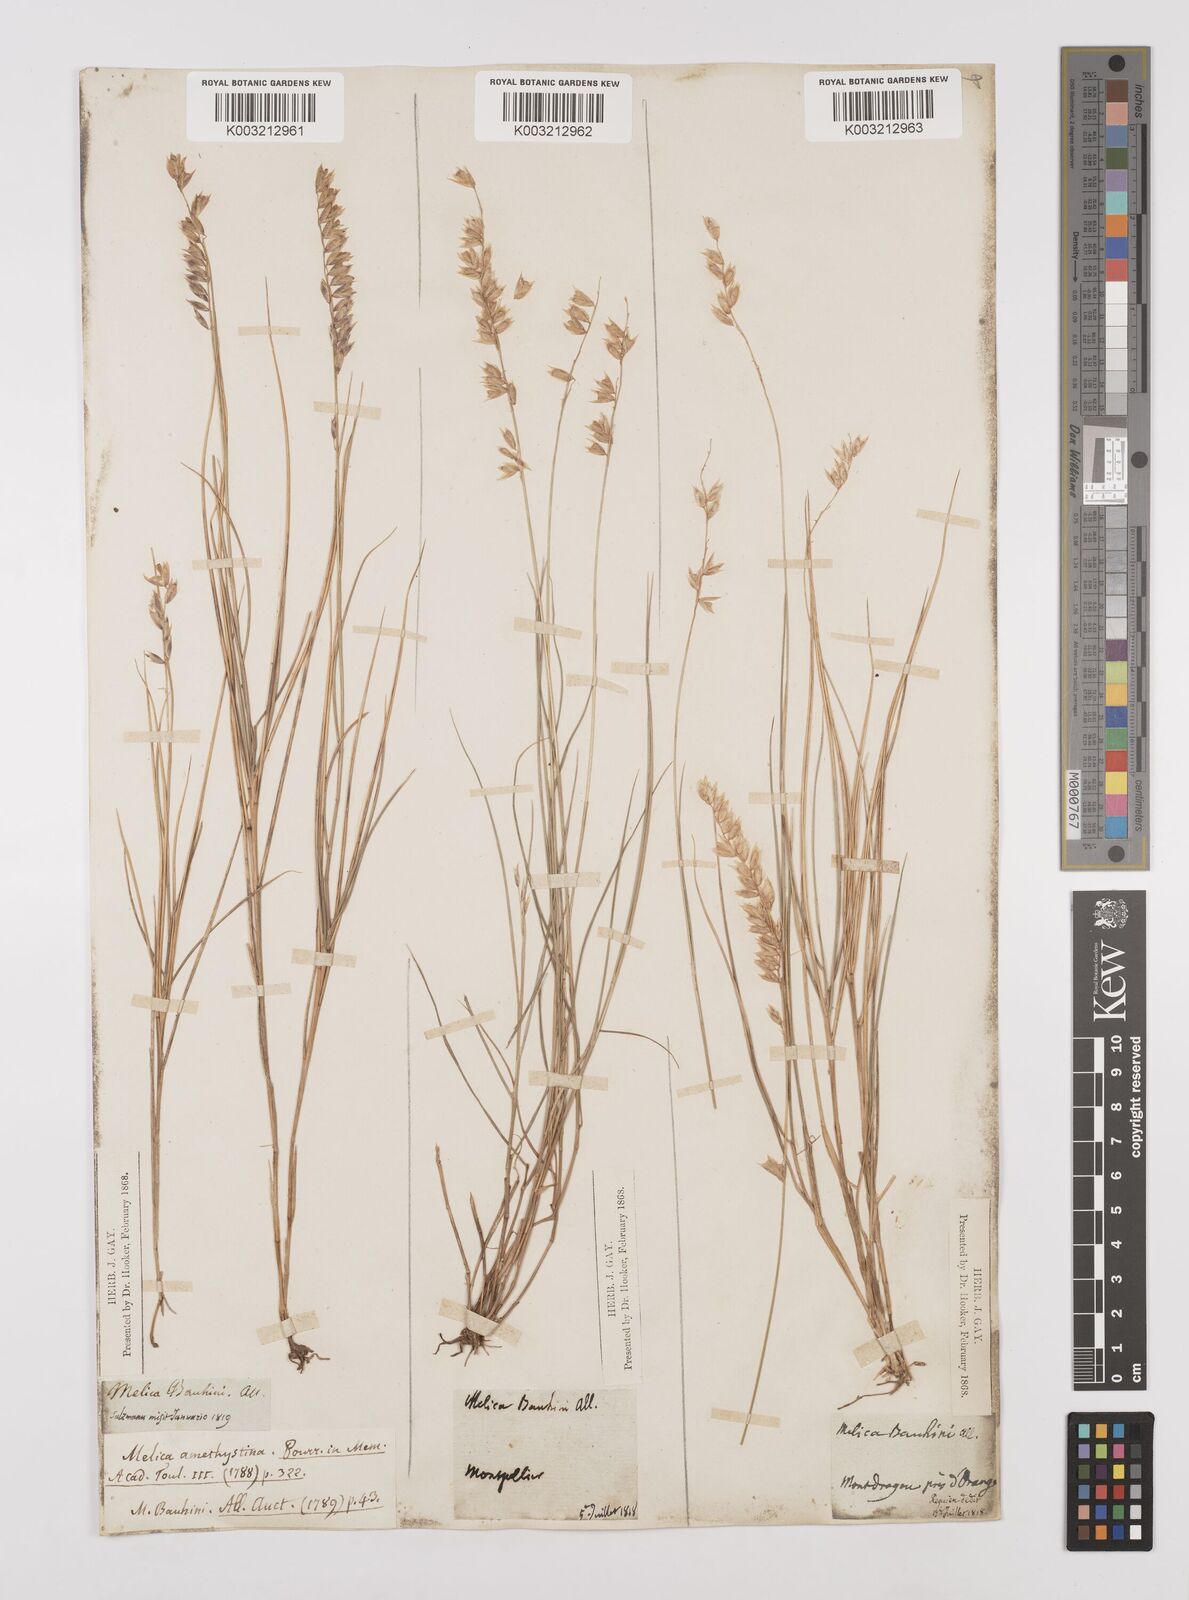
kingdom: Plantae
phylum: Tracheophyta
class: Liliopsida
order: Poales
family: Poaceae
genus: Melica
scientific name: Melica amethystina
